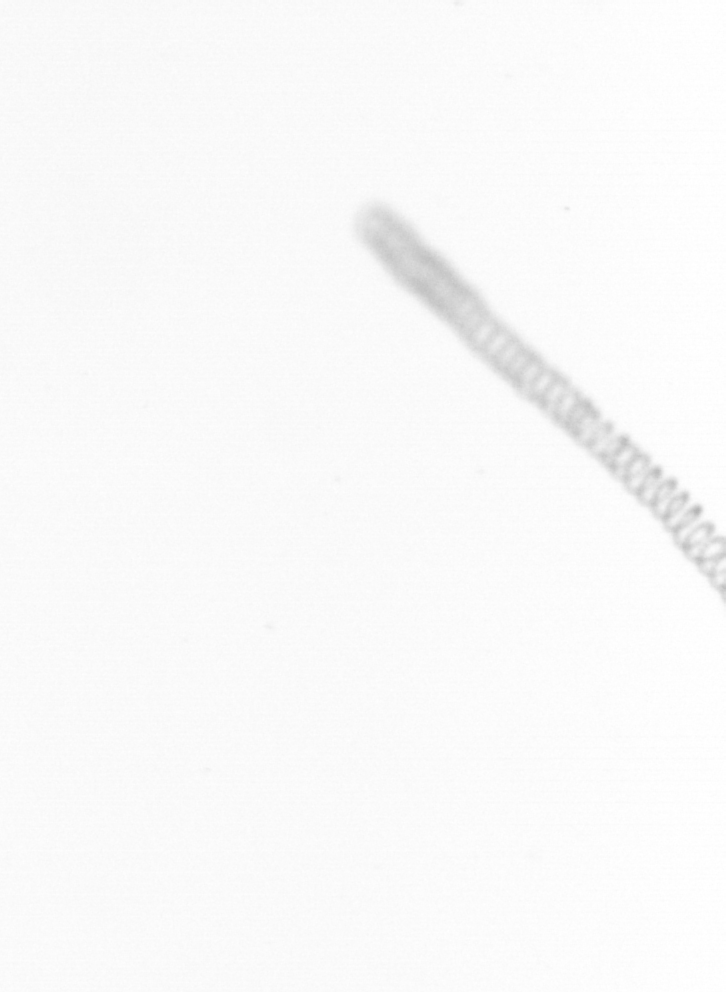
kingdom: Chromista
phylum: Ochrophyta
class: Bacillariophyceae
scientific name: Bacillariophyceae
